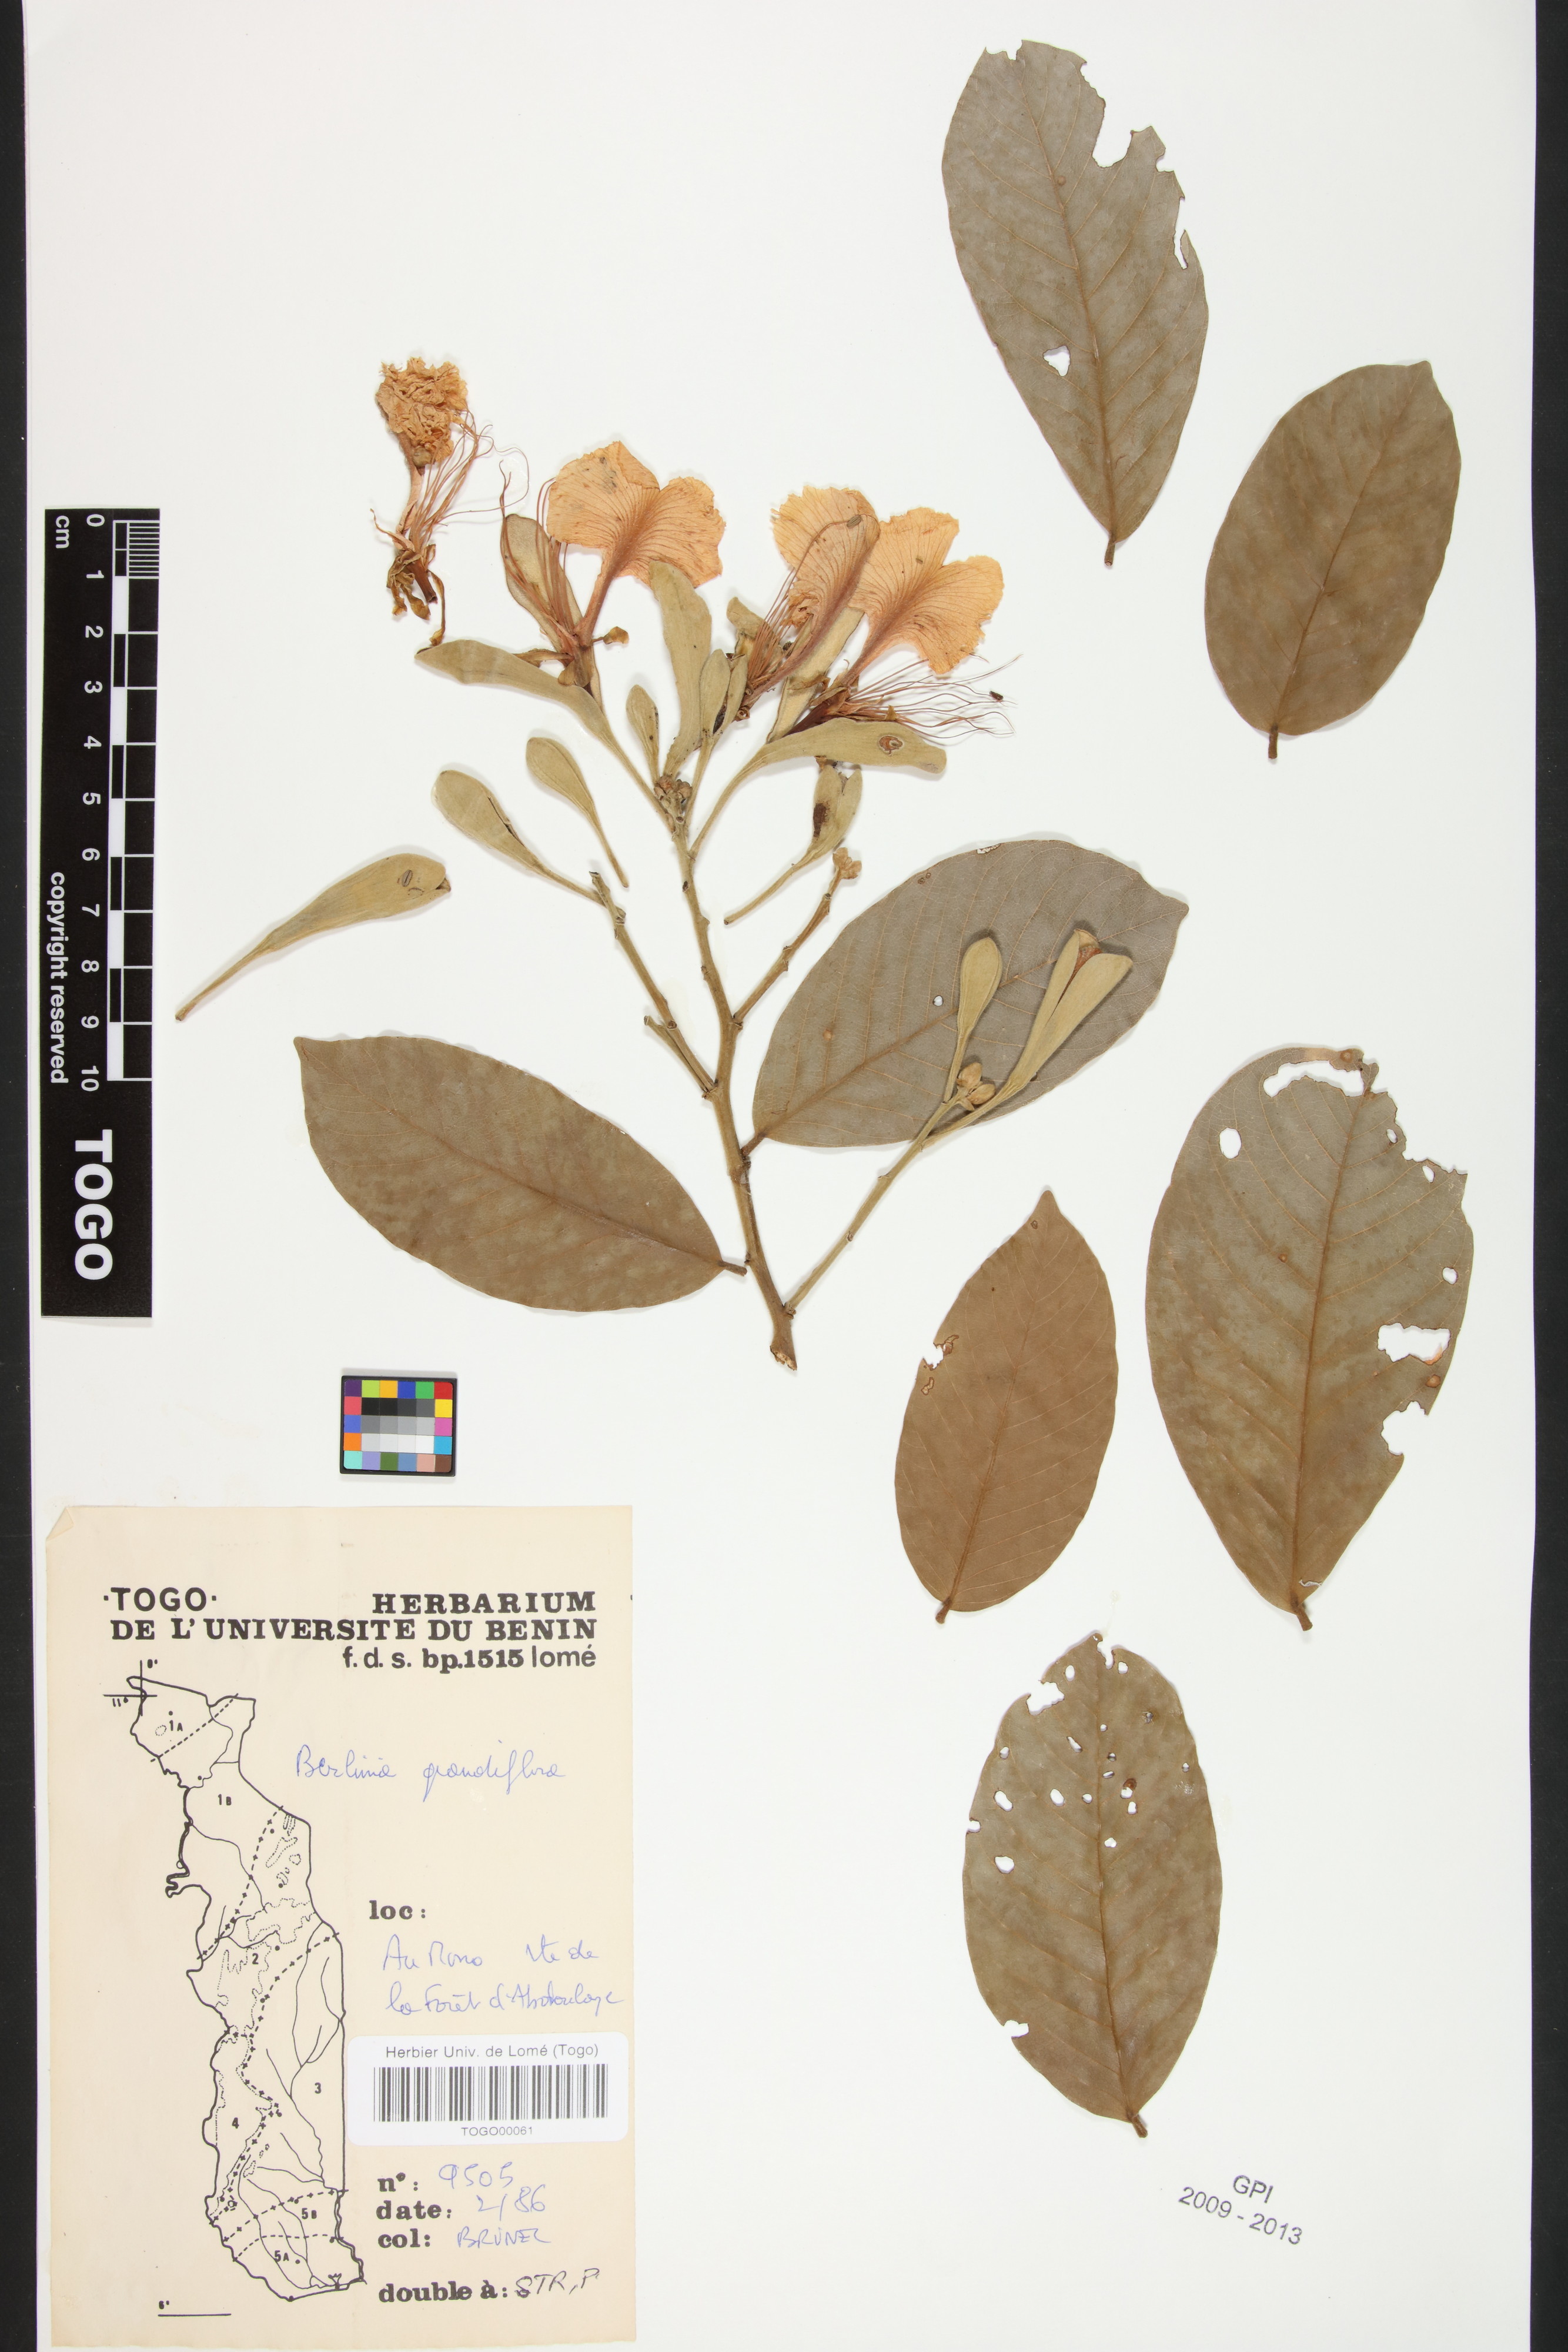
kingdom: Plantae
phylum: Tracheophyta
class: Magnoliopsida
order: Fabales
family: Fabaceae
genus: Berlinia
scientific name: Berlinia grandiflora
